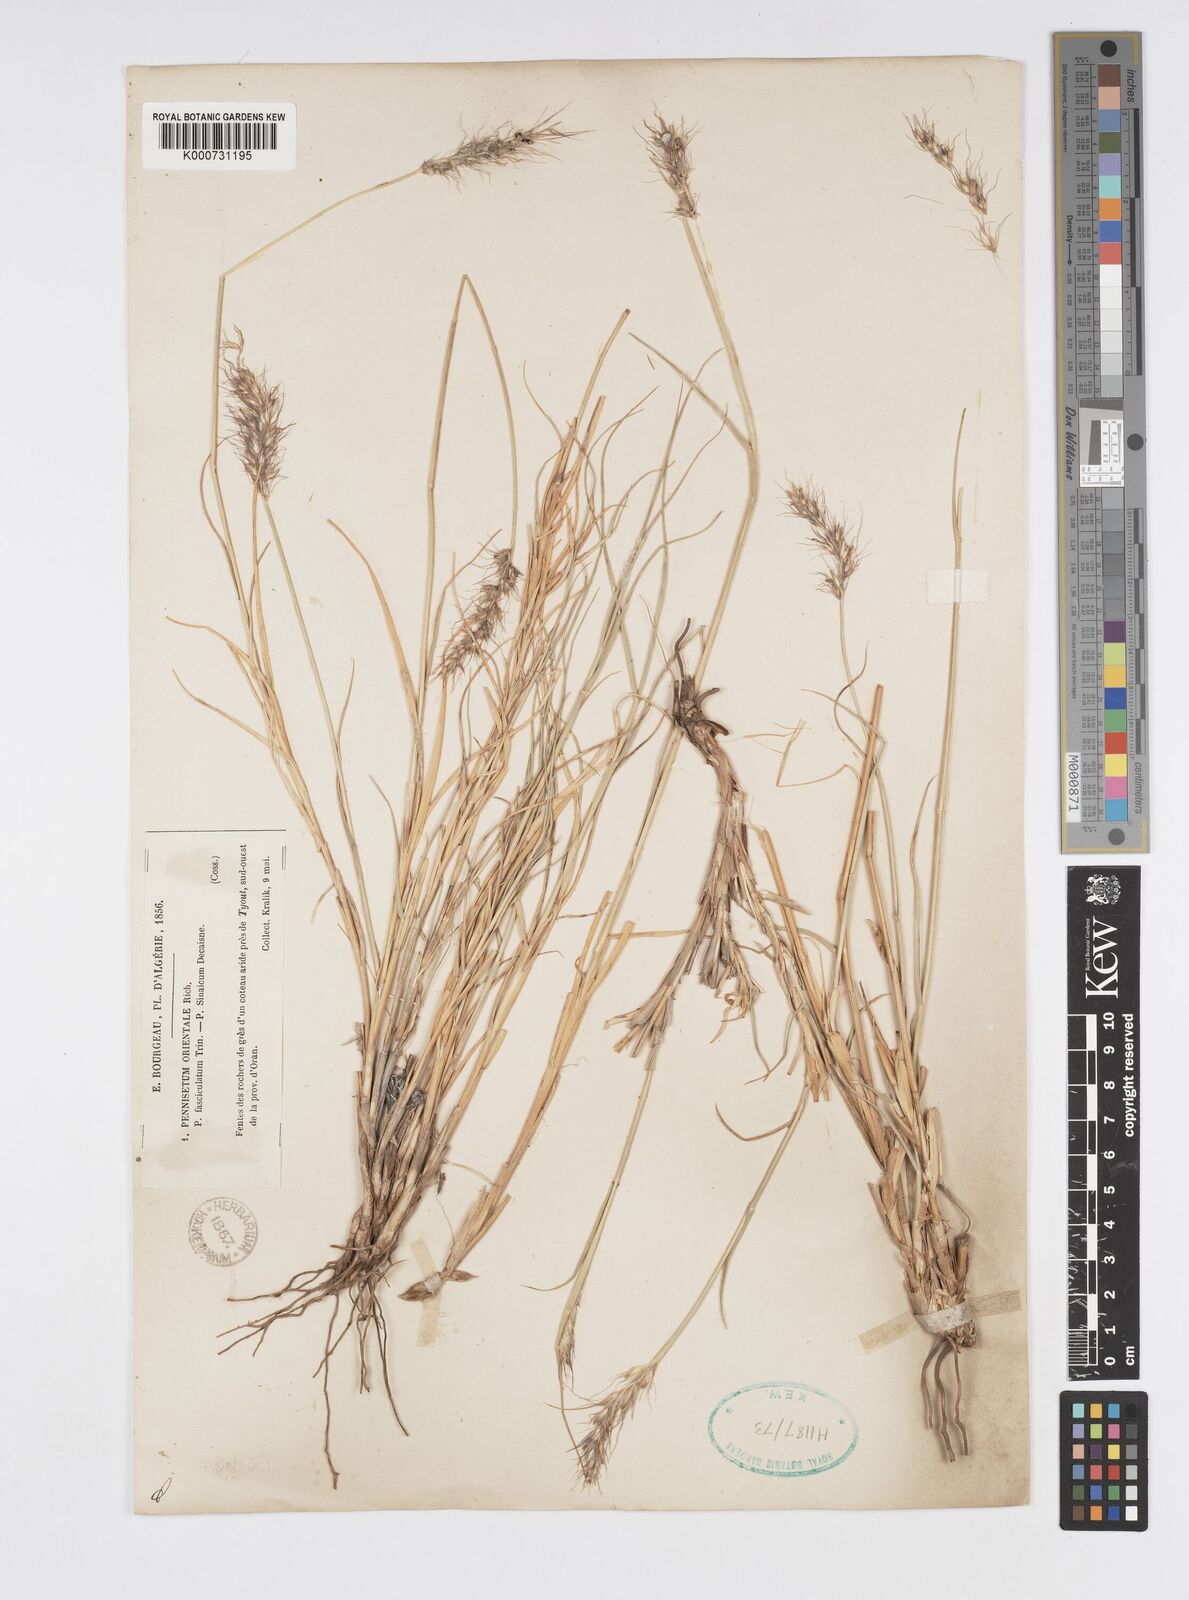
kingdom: Plantae
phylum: Tracheophyta
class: Liliopsida
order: Poales
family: Poaceae
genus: Cenchrus
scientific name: Cenchrus orientalis
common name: Oriental fountain grass
